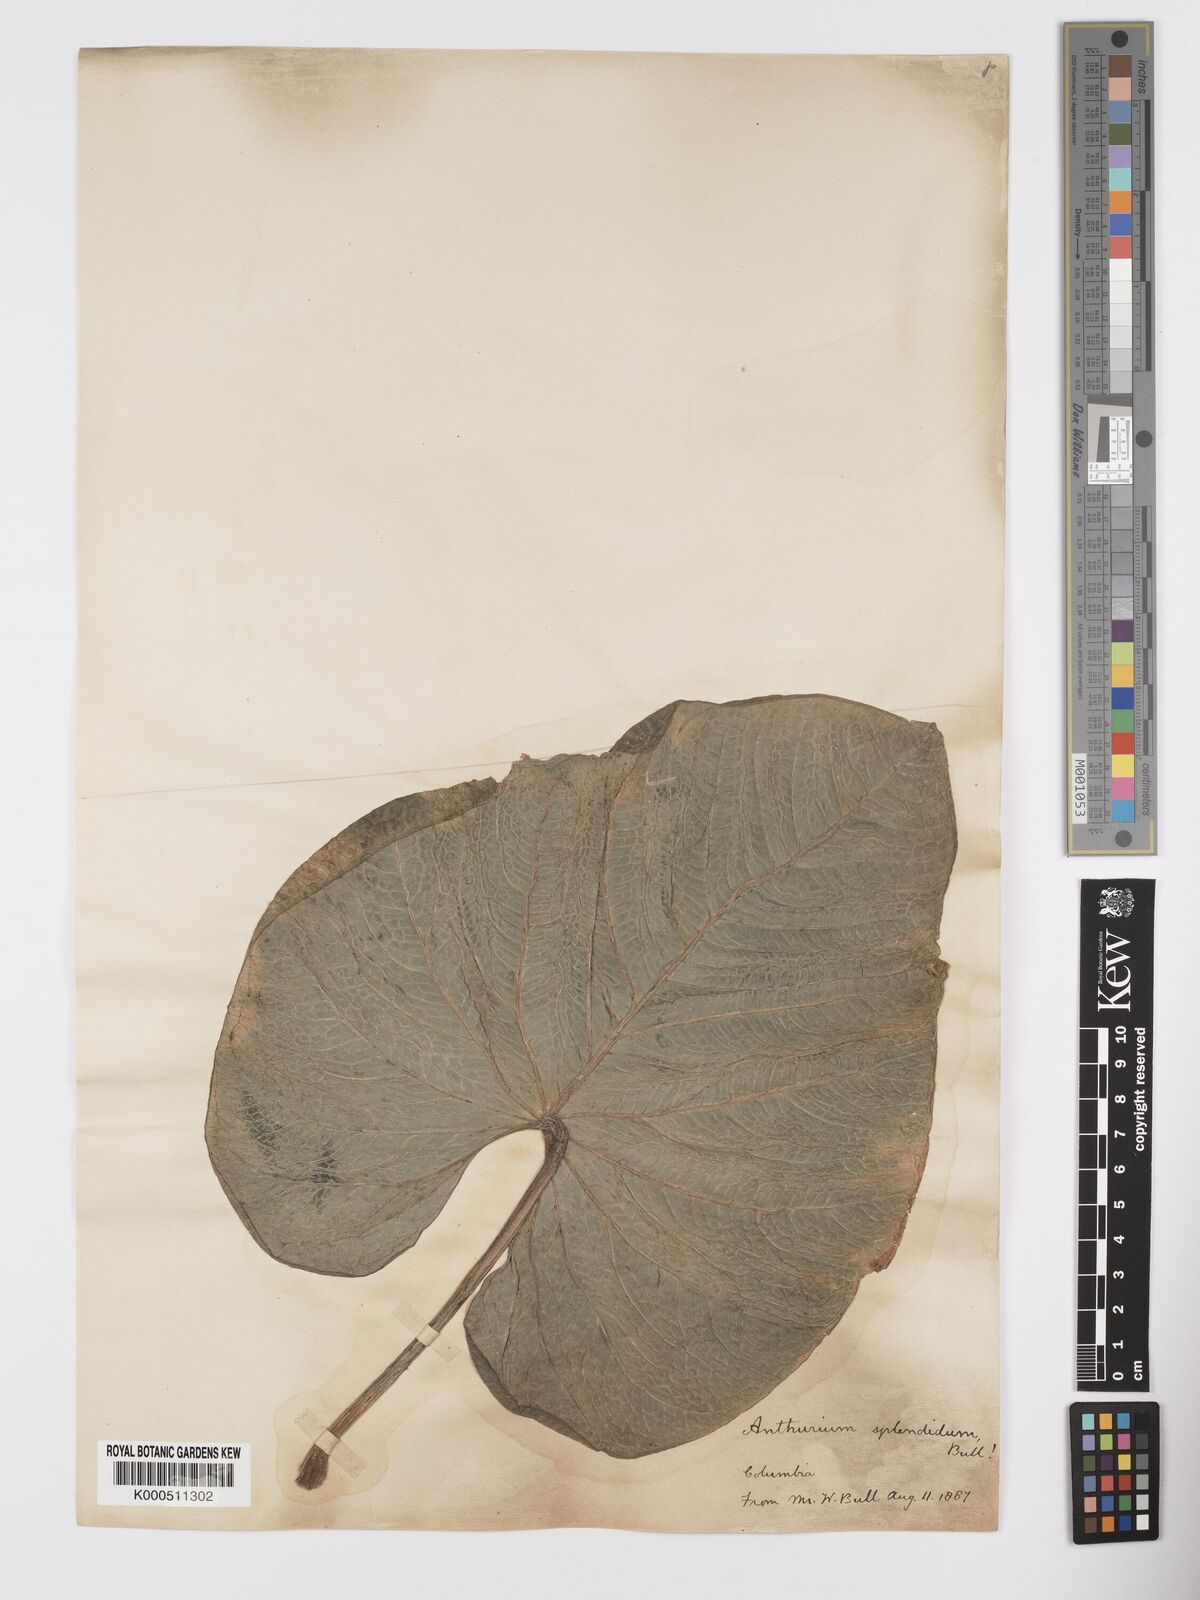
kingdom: Plantae
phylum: Tracheophyta
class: Liliopsida
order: Alismatales
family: Araceae
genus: Anthurium
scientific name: Anthurium splendidum
